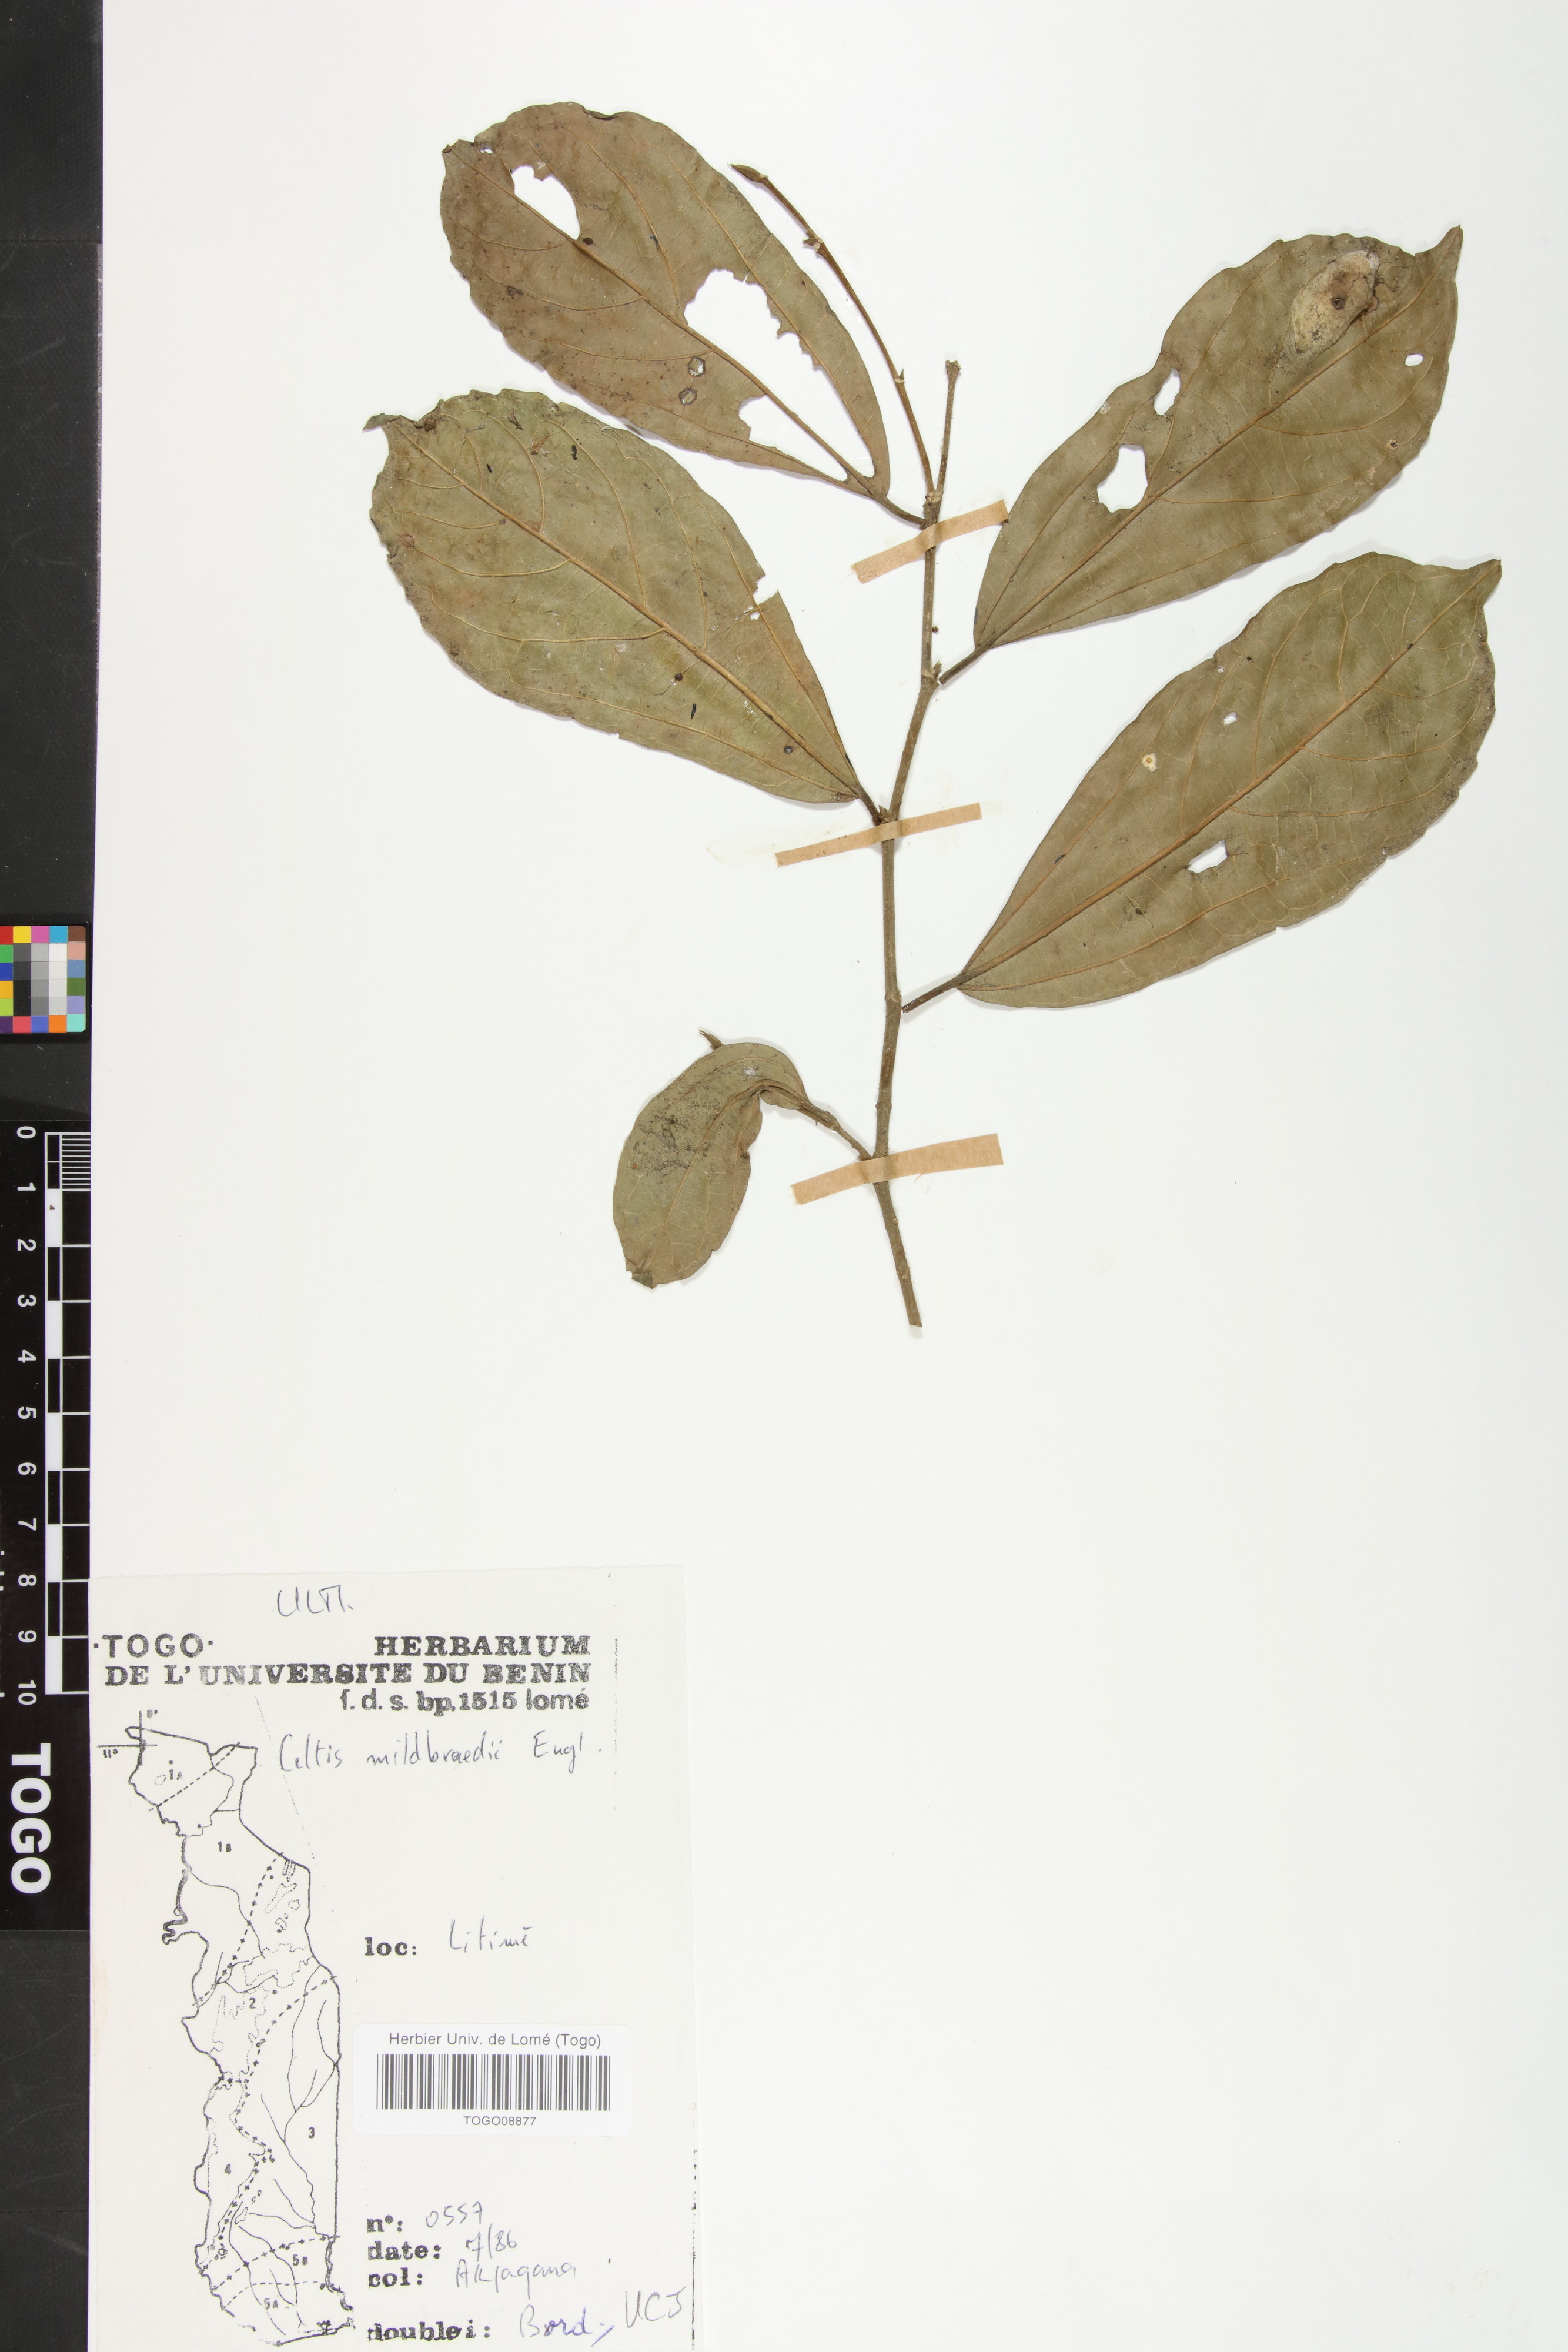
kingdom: Plantae
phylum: Tracheophyta
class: Magnoliopsida
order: Rosales
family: Cannabaceae
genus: Celtis
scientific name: Celtis mildbraedii
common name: Red-fruited stinkwood
